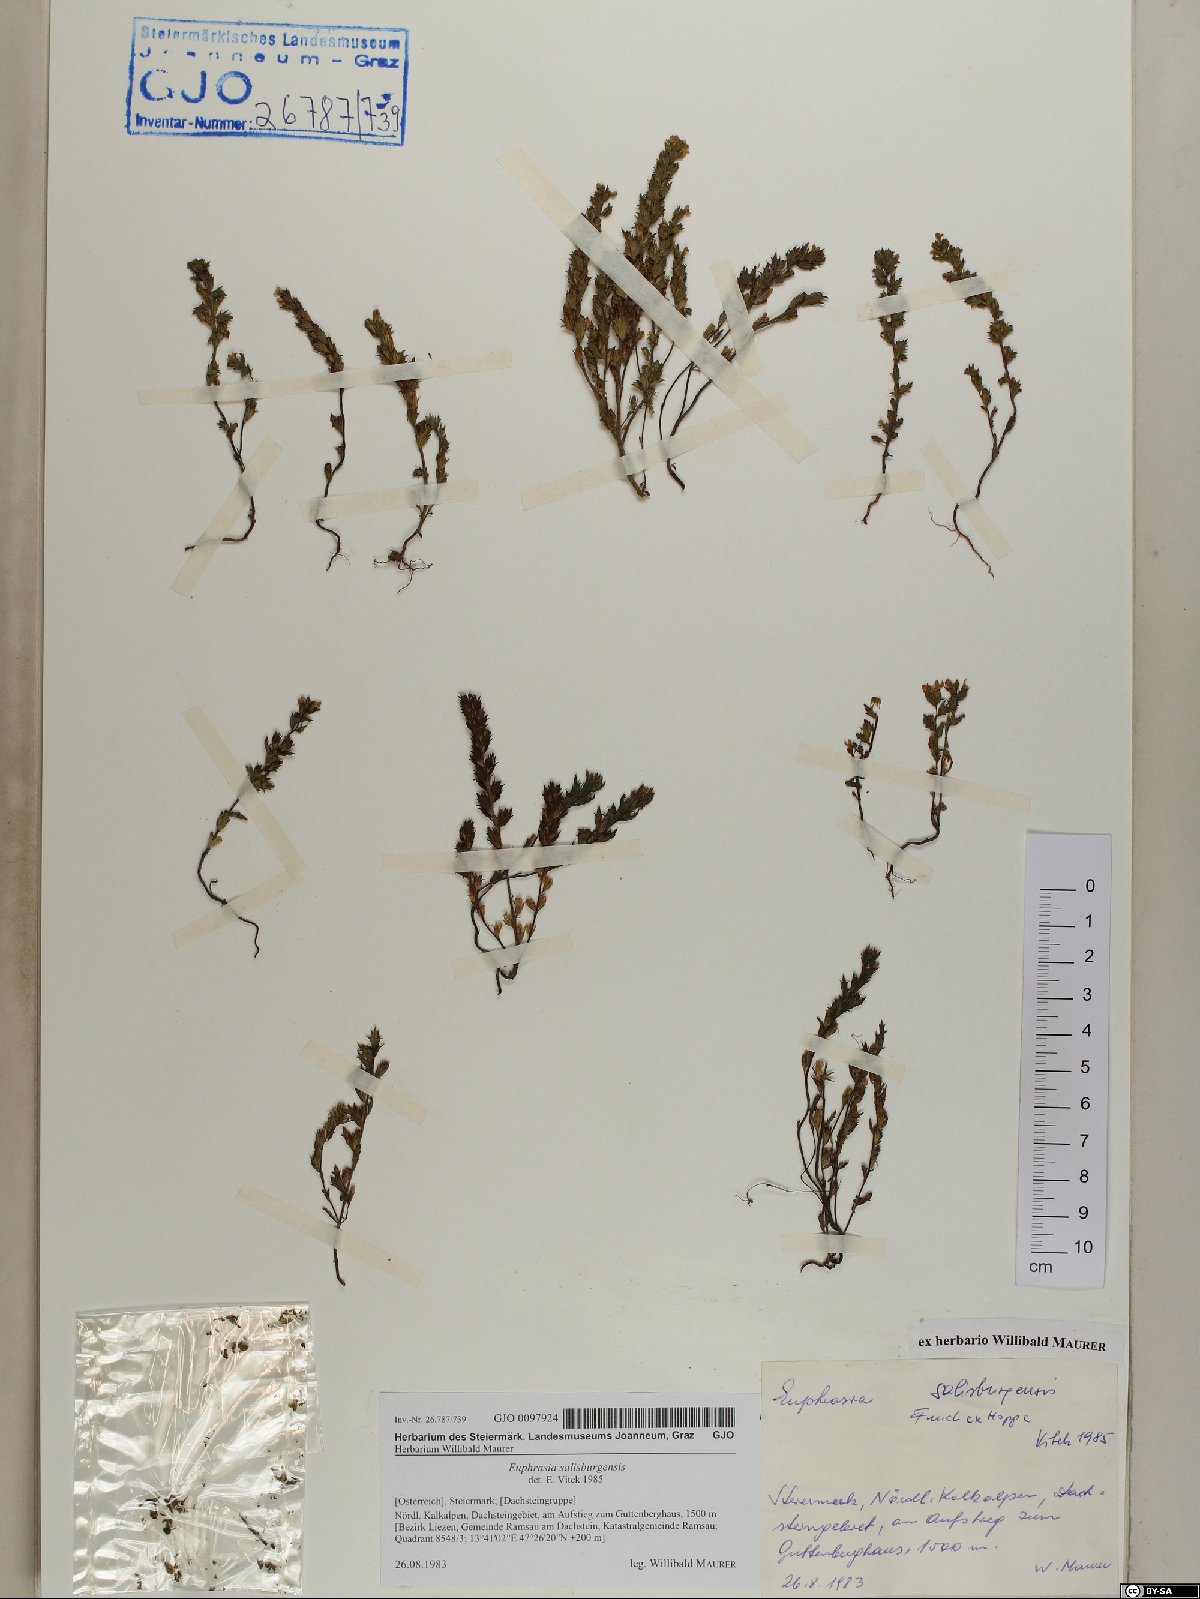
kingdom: Plantae
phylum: Tracheophyta
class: Magnoliopsida
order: Lamiales
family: Orobanchaceae
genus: Euphrasia
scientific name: Euphrasia salisburgensis
